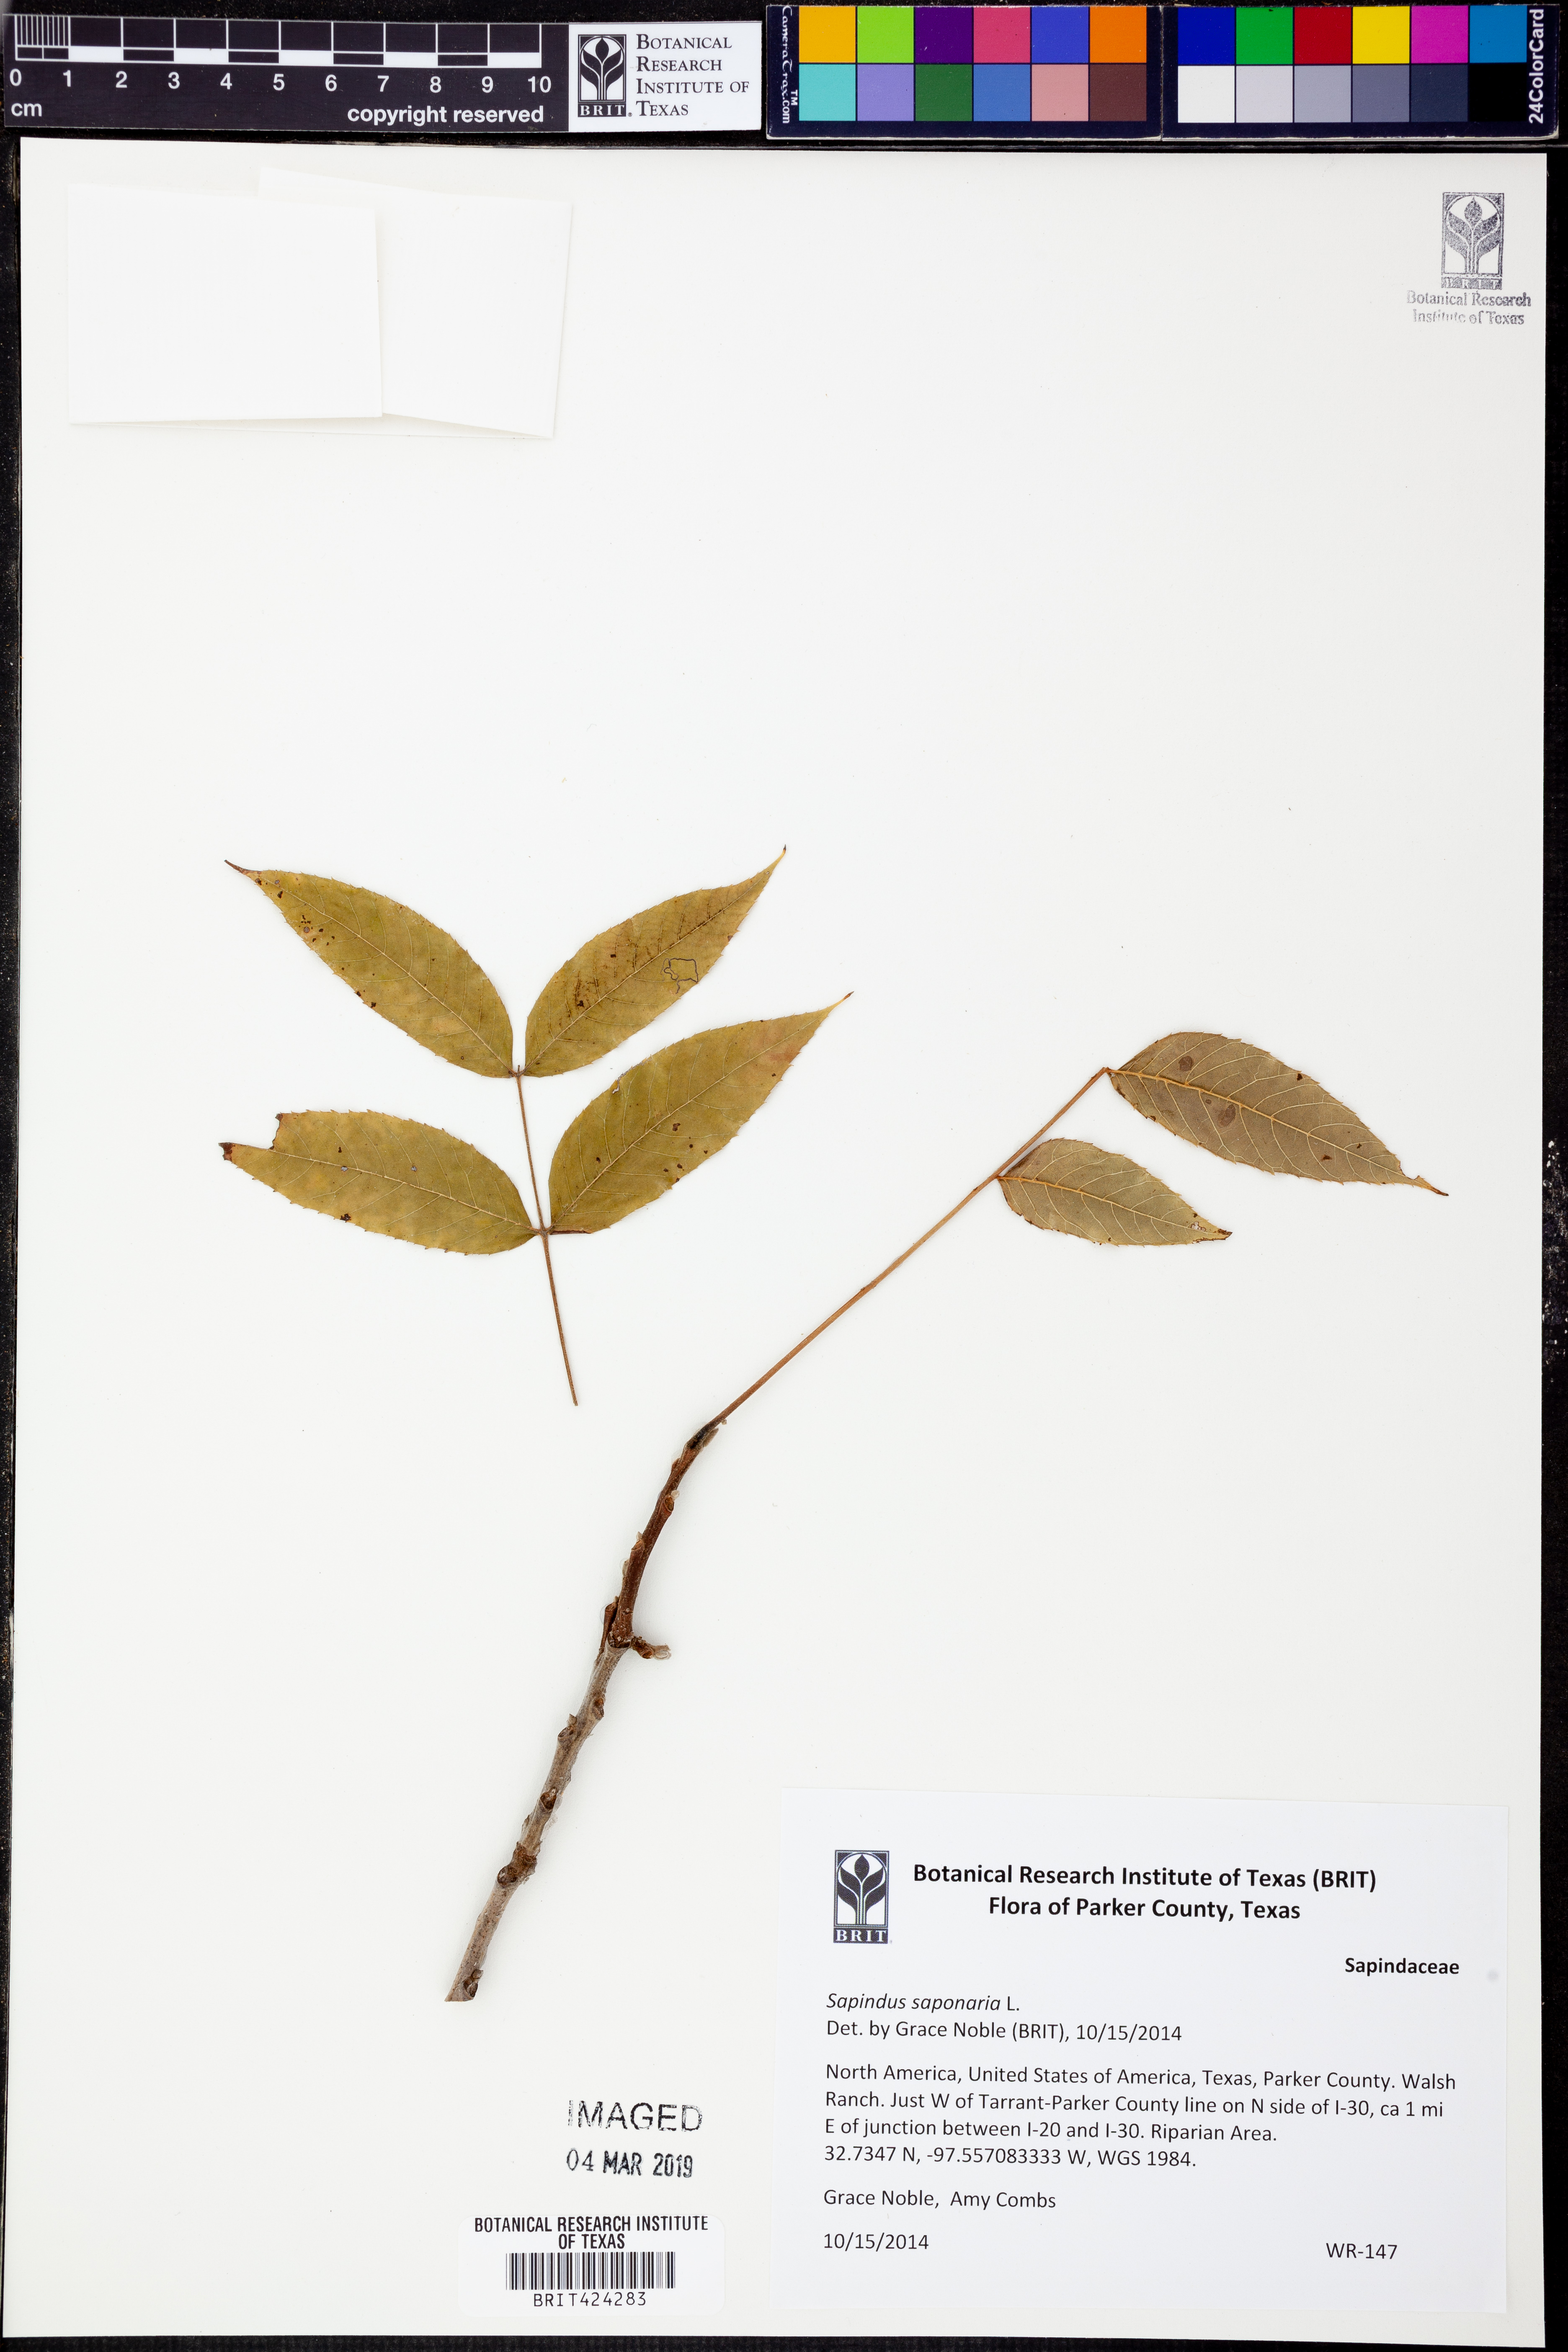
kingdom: Plantae
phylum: Tracheophyta
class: Magnoliopsida
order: Sapindales
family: Sapindaceae
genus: Sapindus
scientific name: Sapindus saponaria
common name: Wingleaf soapberry
